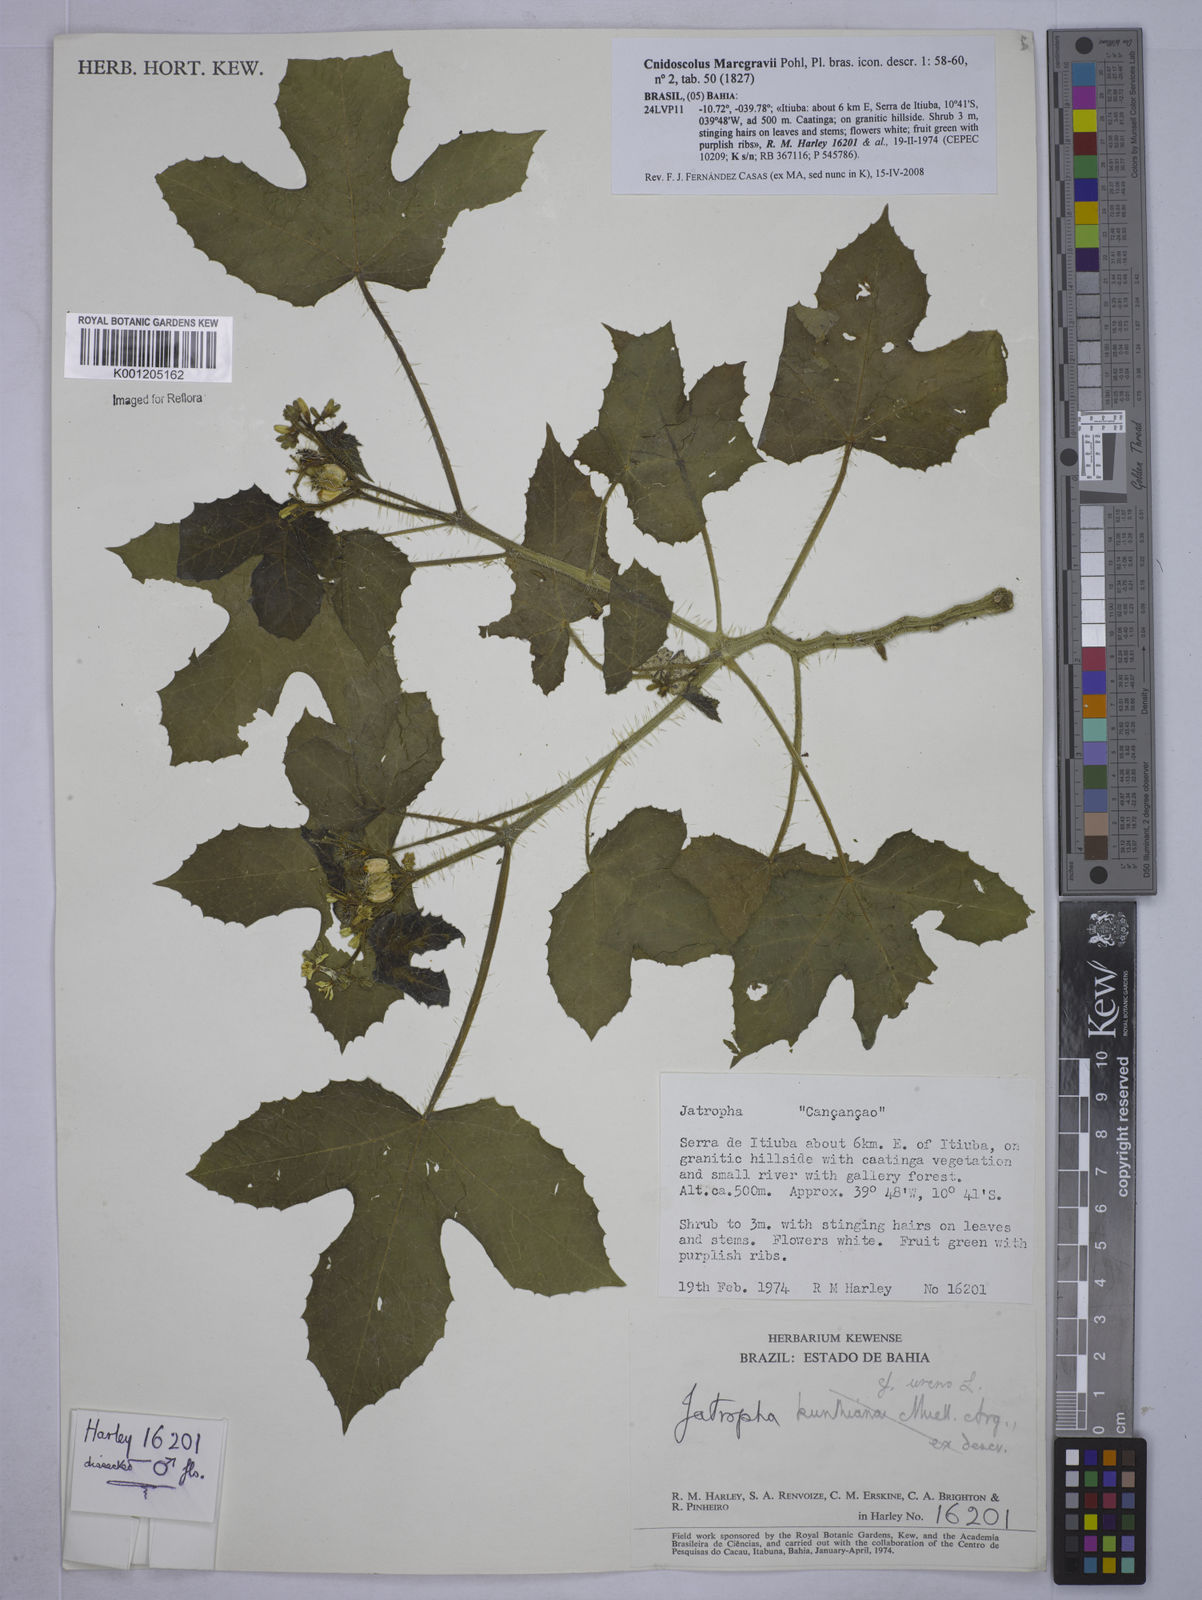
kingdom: Plantae
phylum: Tracheophyta
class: Magnoliopsida
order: Malpighiales
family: Euphorbiaceae
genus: Cnidoscolus
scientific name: Cnidoscolus urens
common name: Bull-nettle
